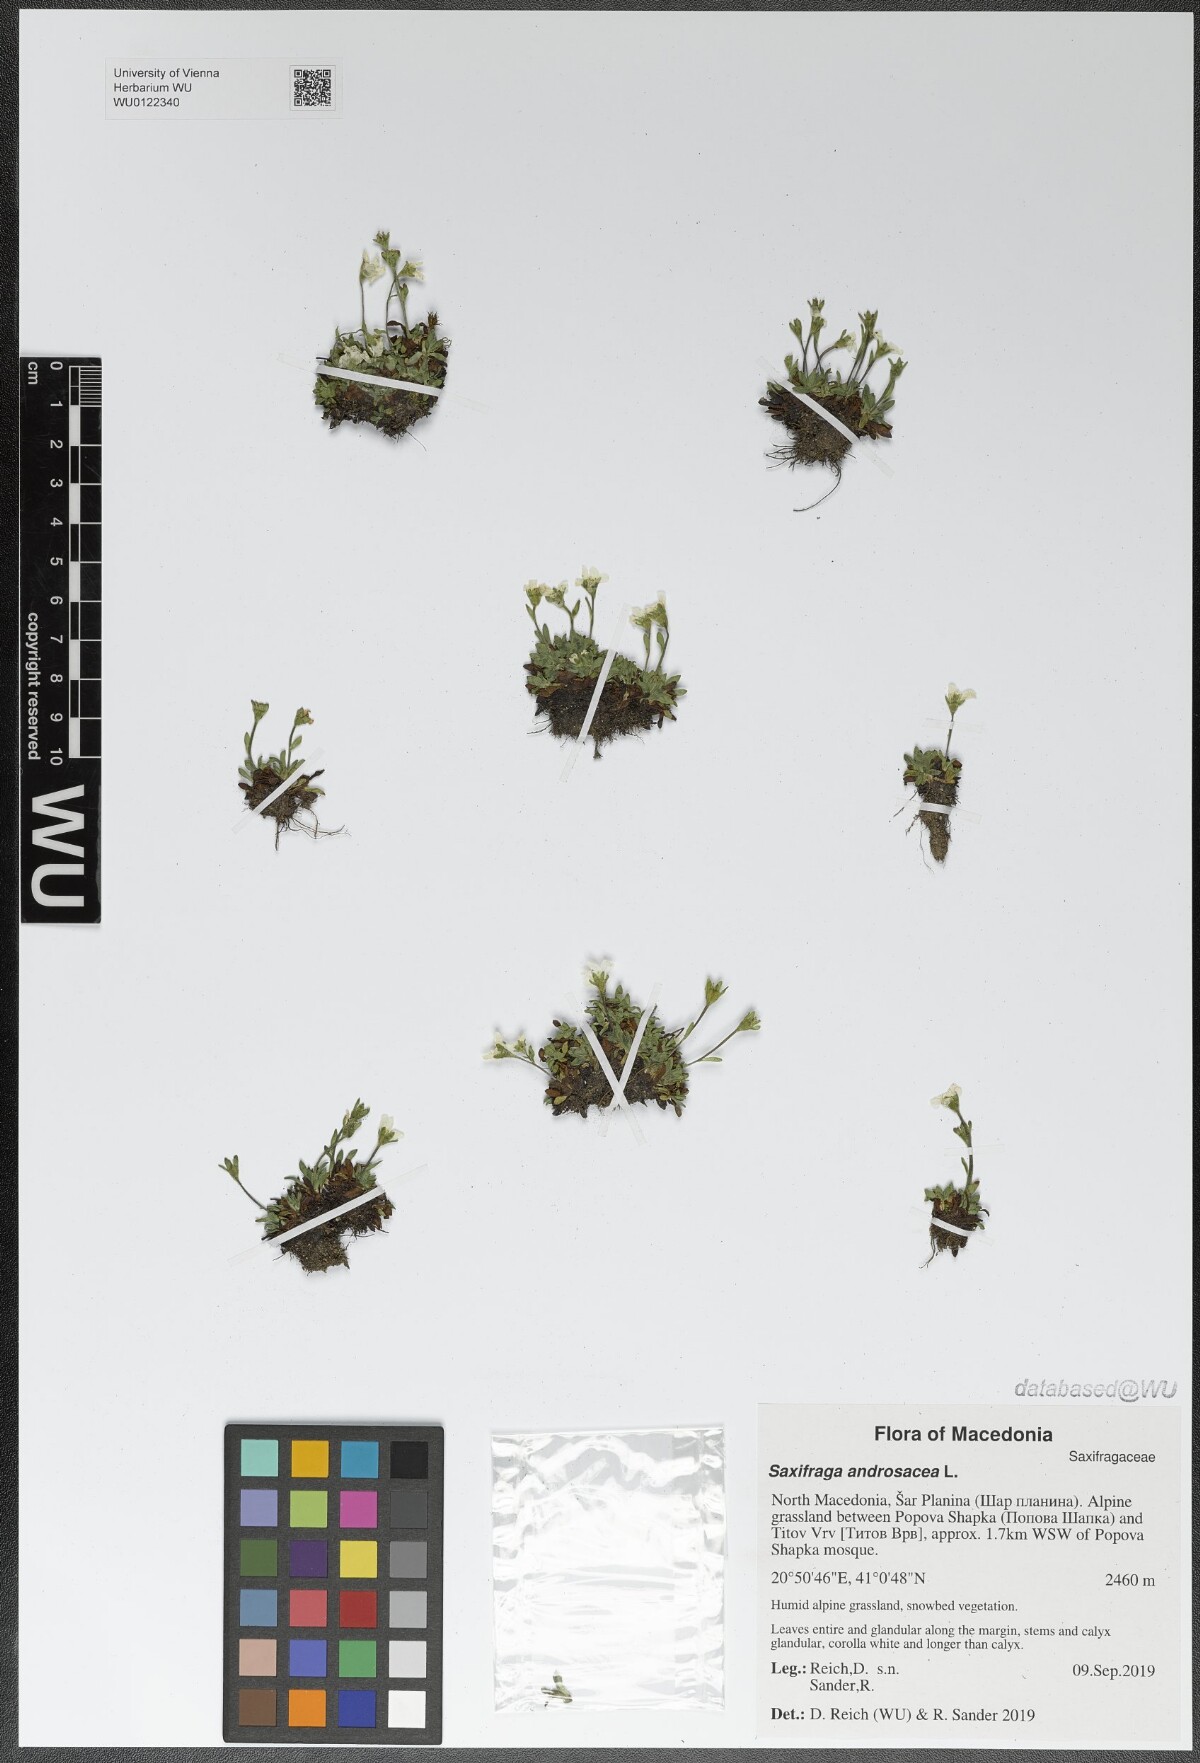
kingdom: Plantae
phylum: Tracheophyta
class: Magnoliopsida
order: Saxifragales
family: Saxifragaceae
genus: Saxifraga
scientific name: Saxifraga androsacea
